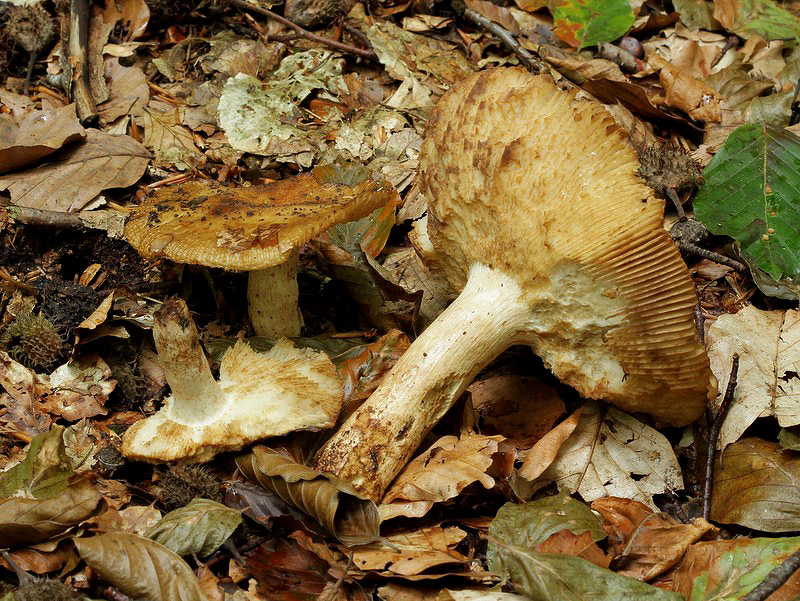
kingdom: Fungi
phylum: Basidiomycota
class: Agaricomycetes
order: Russulales
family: Russulaceae
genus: Russula
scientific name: Russula grata
